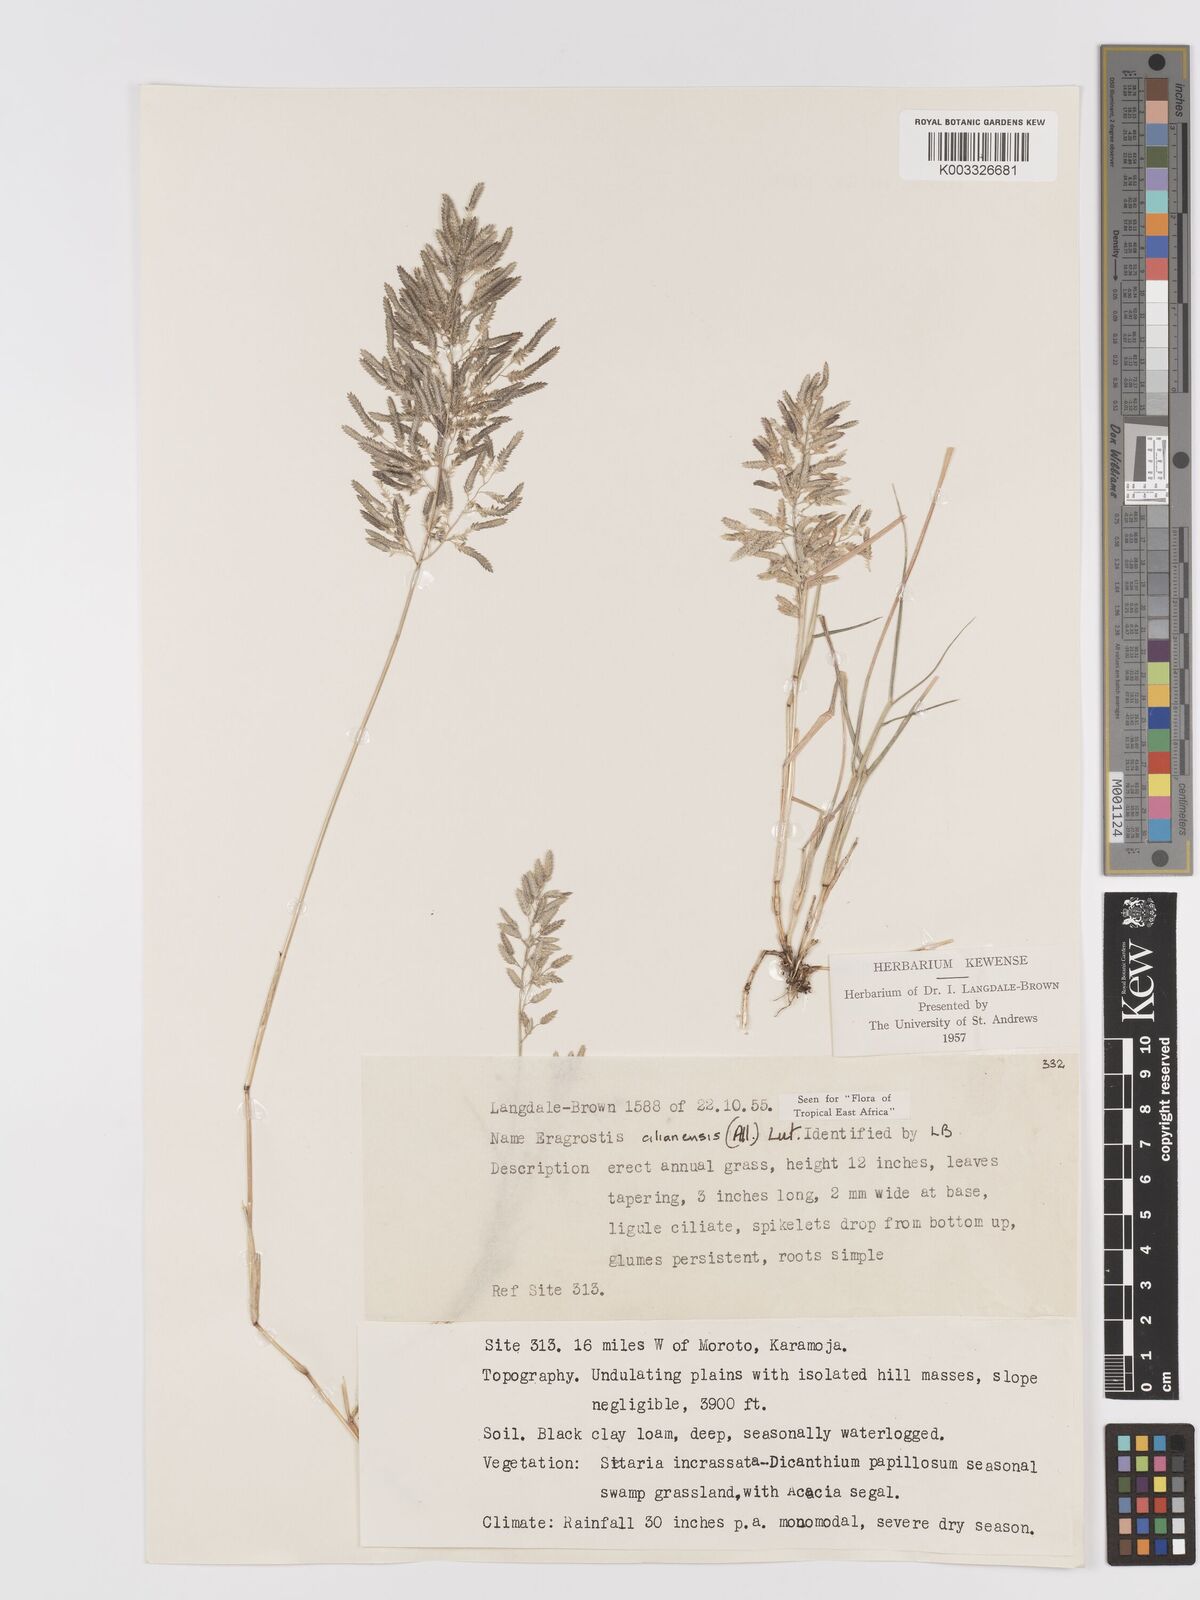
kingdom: Plantae
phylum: Tracheophyta
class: Liliopsida
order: Poales
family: Poaceae
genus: Eragrostis
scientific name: Eragrostis cilianensis
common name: Stinkgrass
